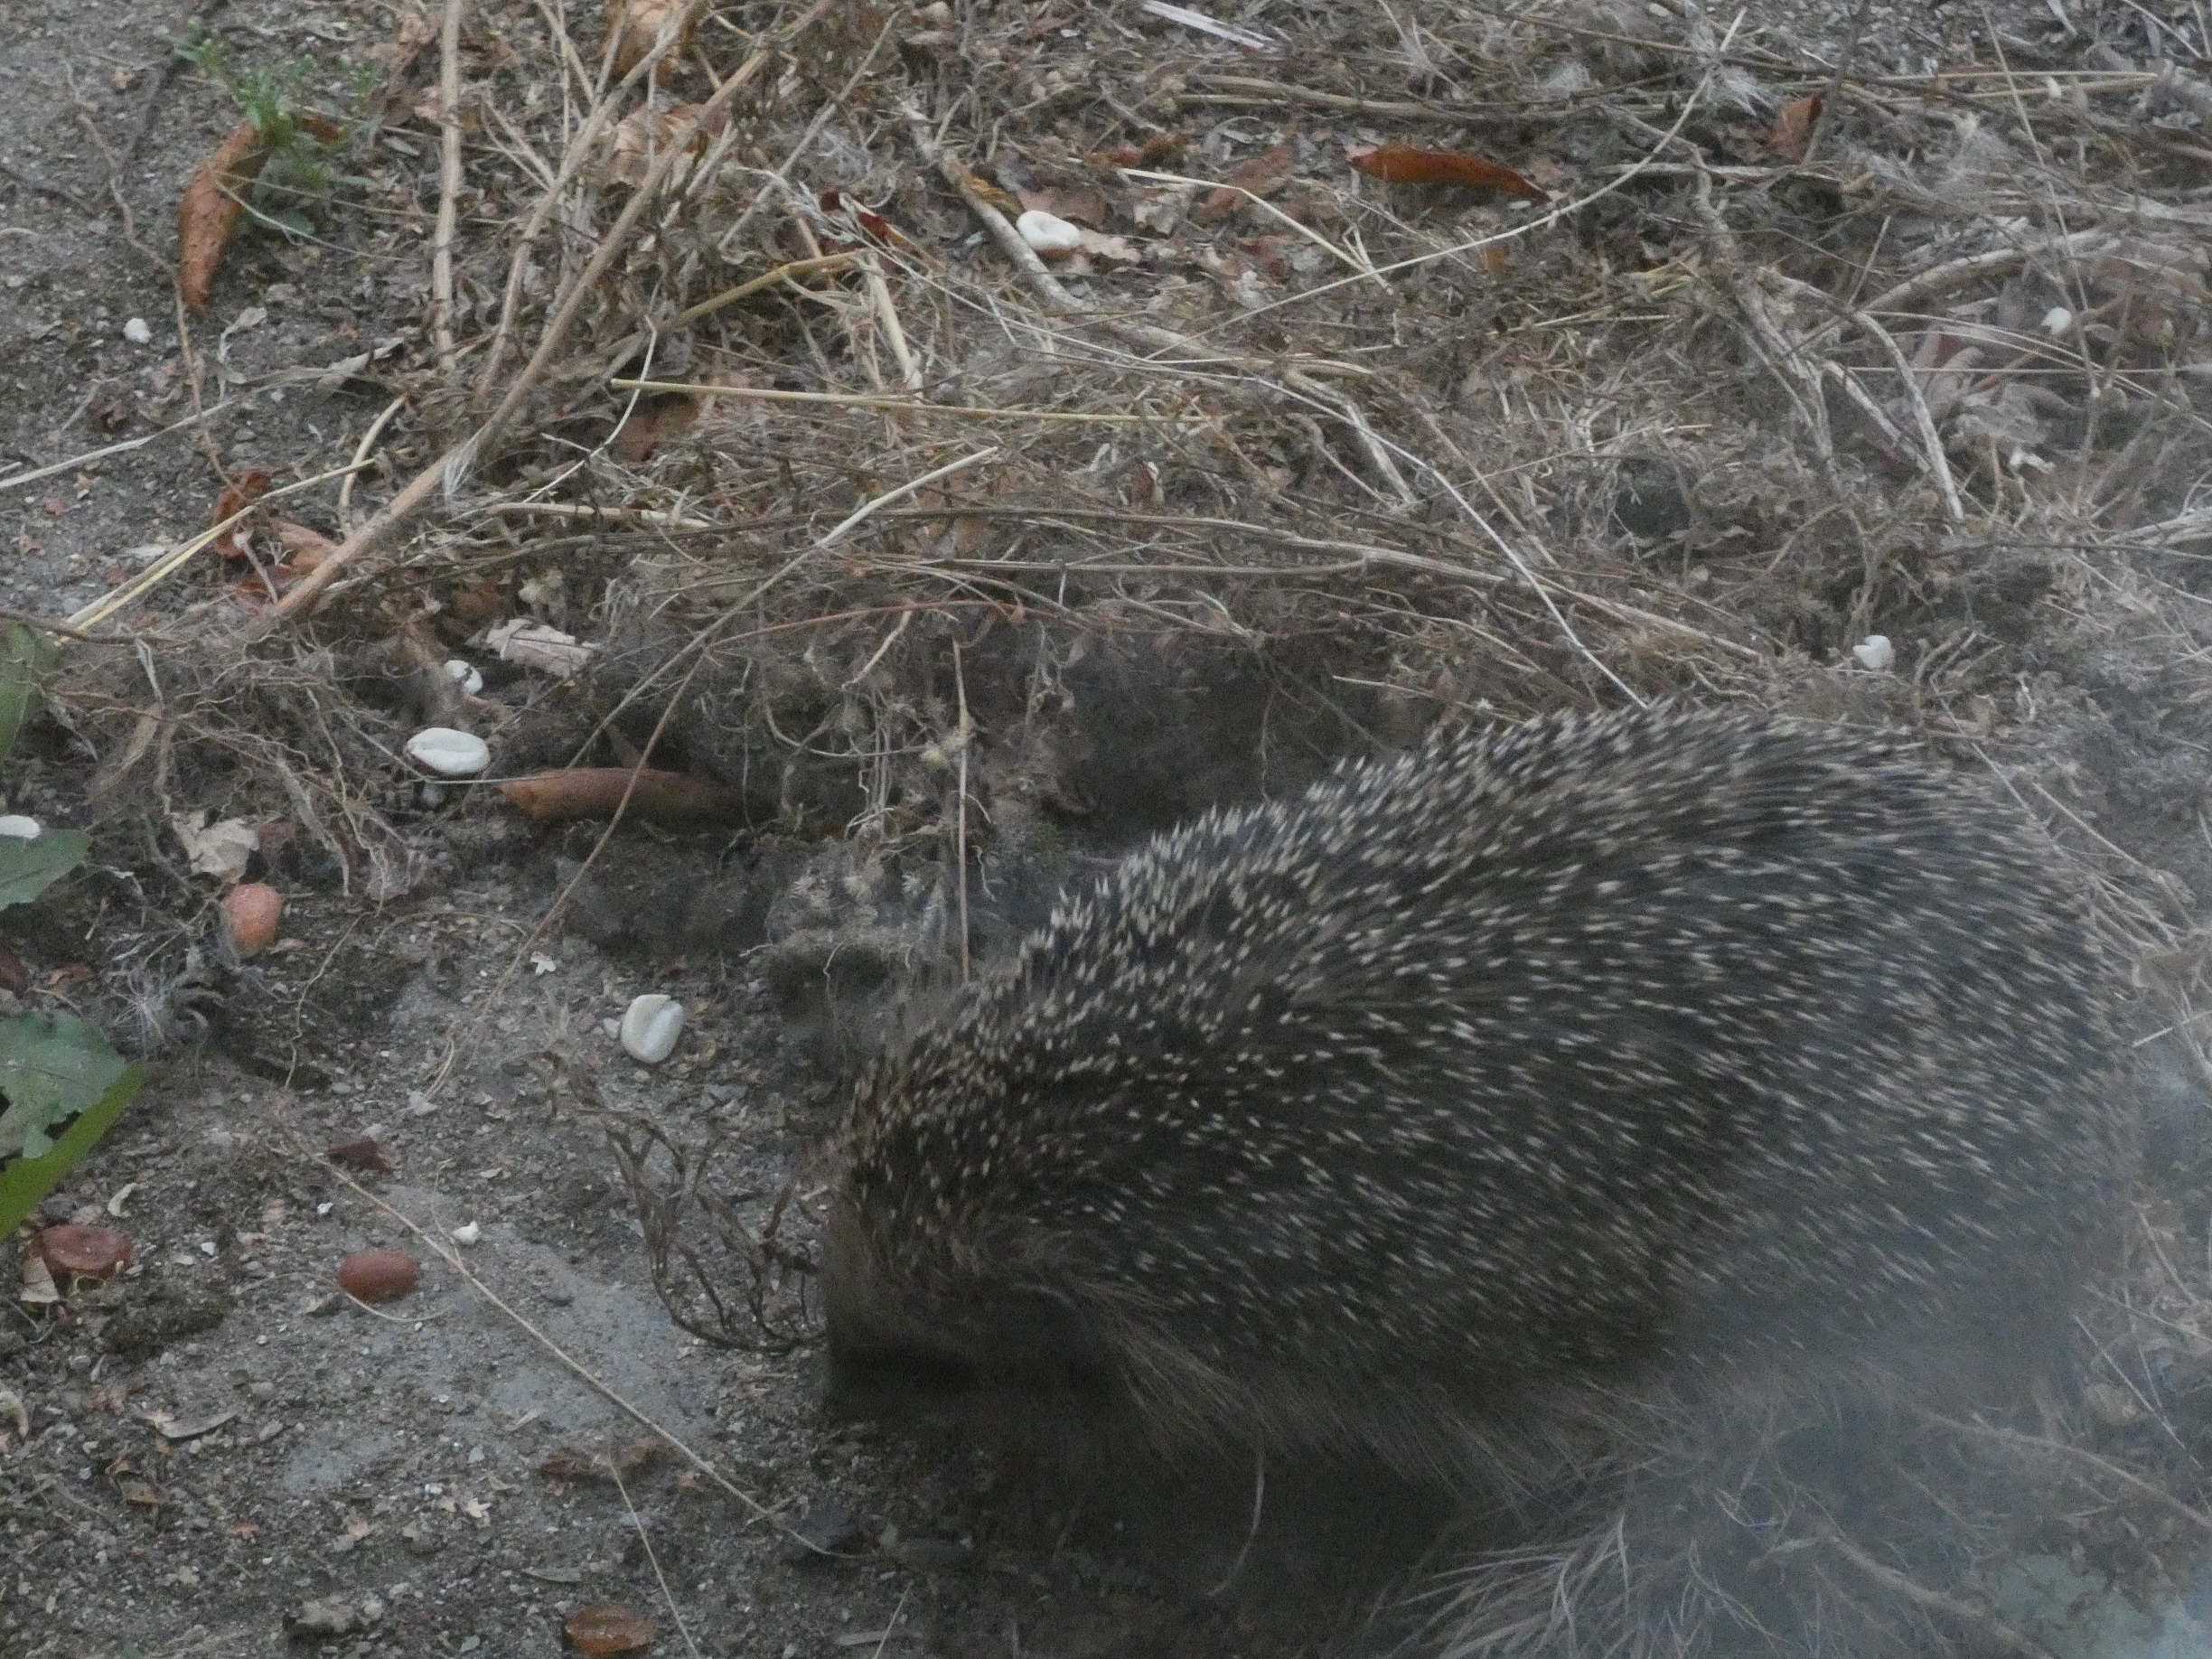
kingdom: Animalia
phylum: Chordata
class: Mammalia
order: Erinaceomorpha
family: Erinaceidae
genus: Erinaceus
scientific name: Erinaceus europaeus
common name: Pindsvin
